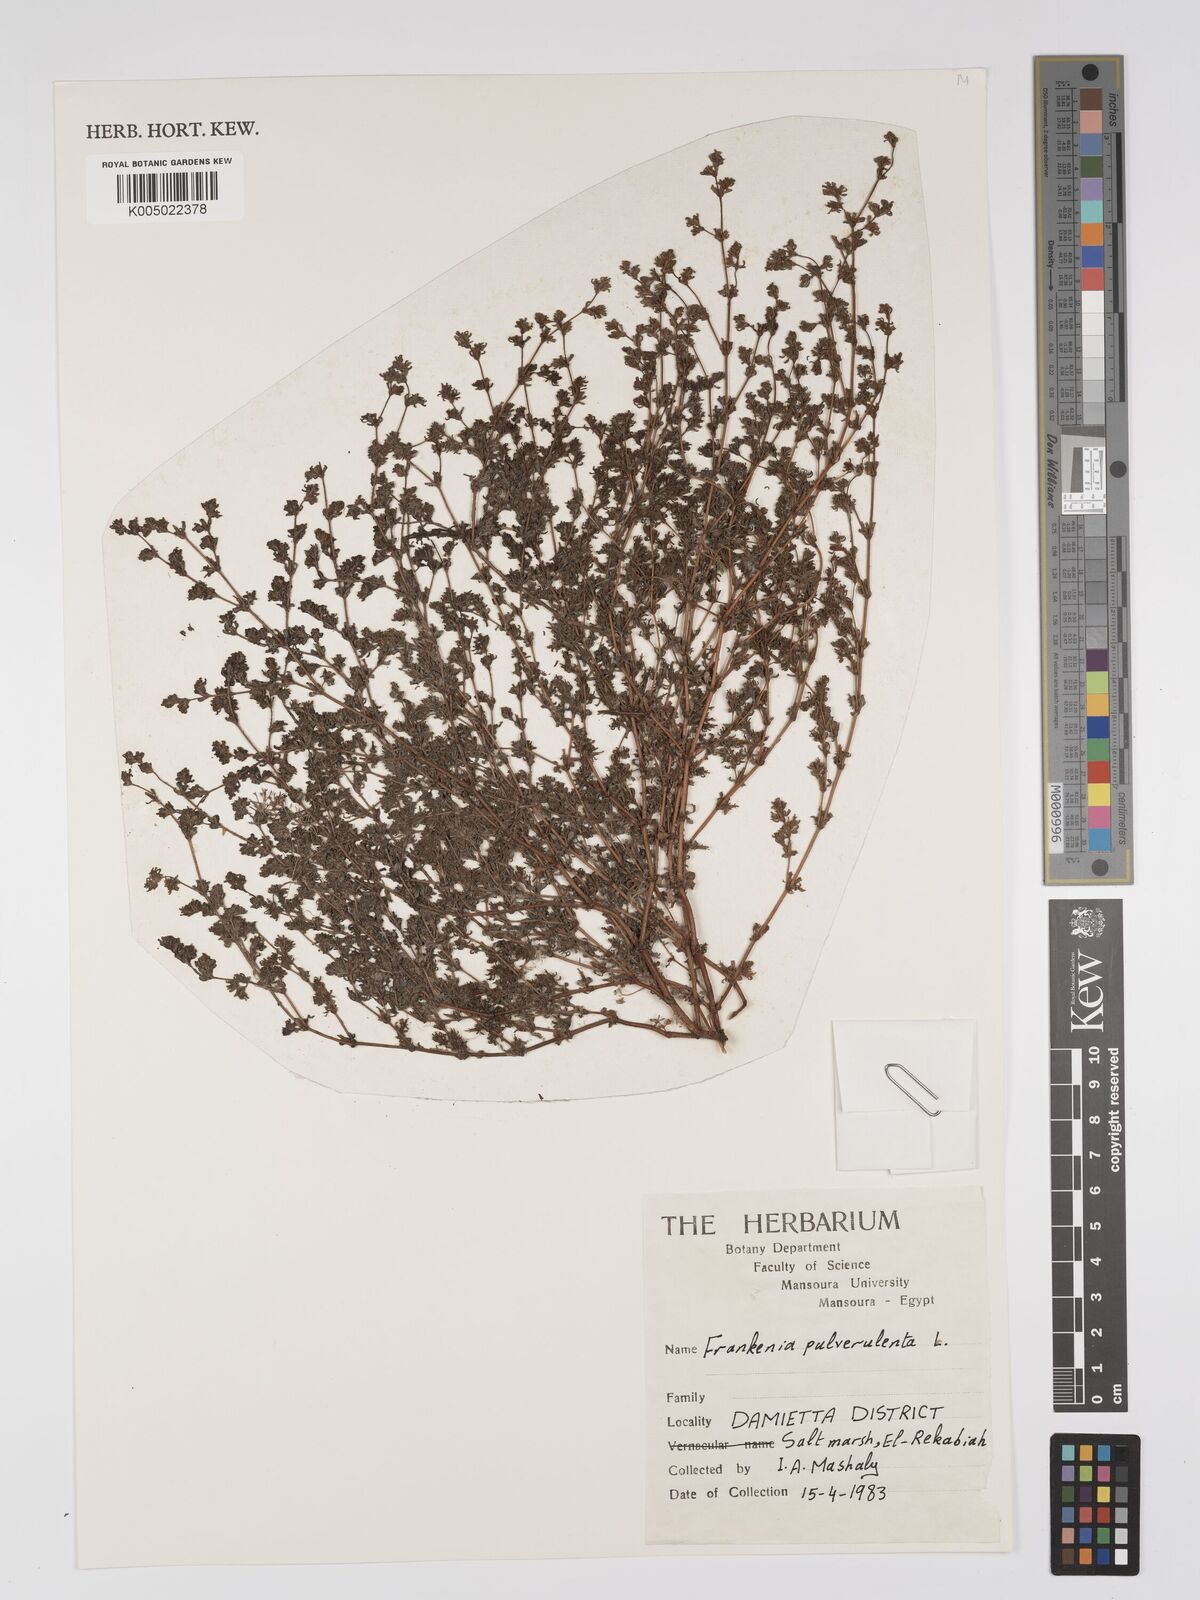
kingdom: Plantae
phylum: Tracheophyta
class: Magnoliopsida
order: Caryophyllales
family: Frankeniaceae
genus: Frankenia
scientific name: Frankenia pulverulenta
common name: European seaheath
